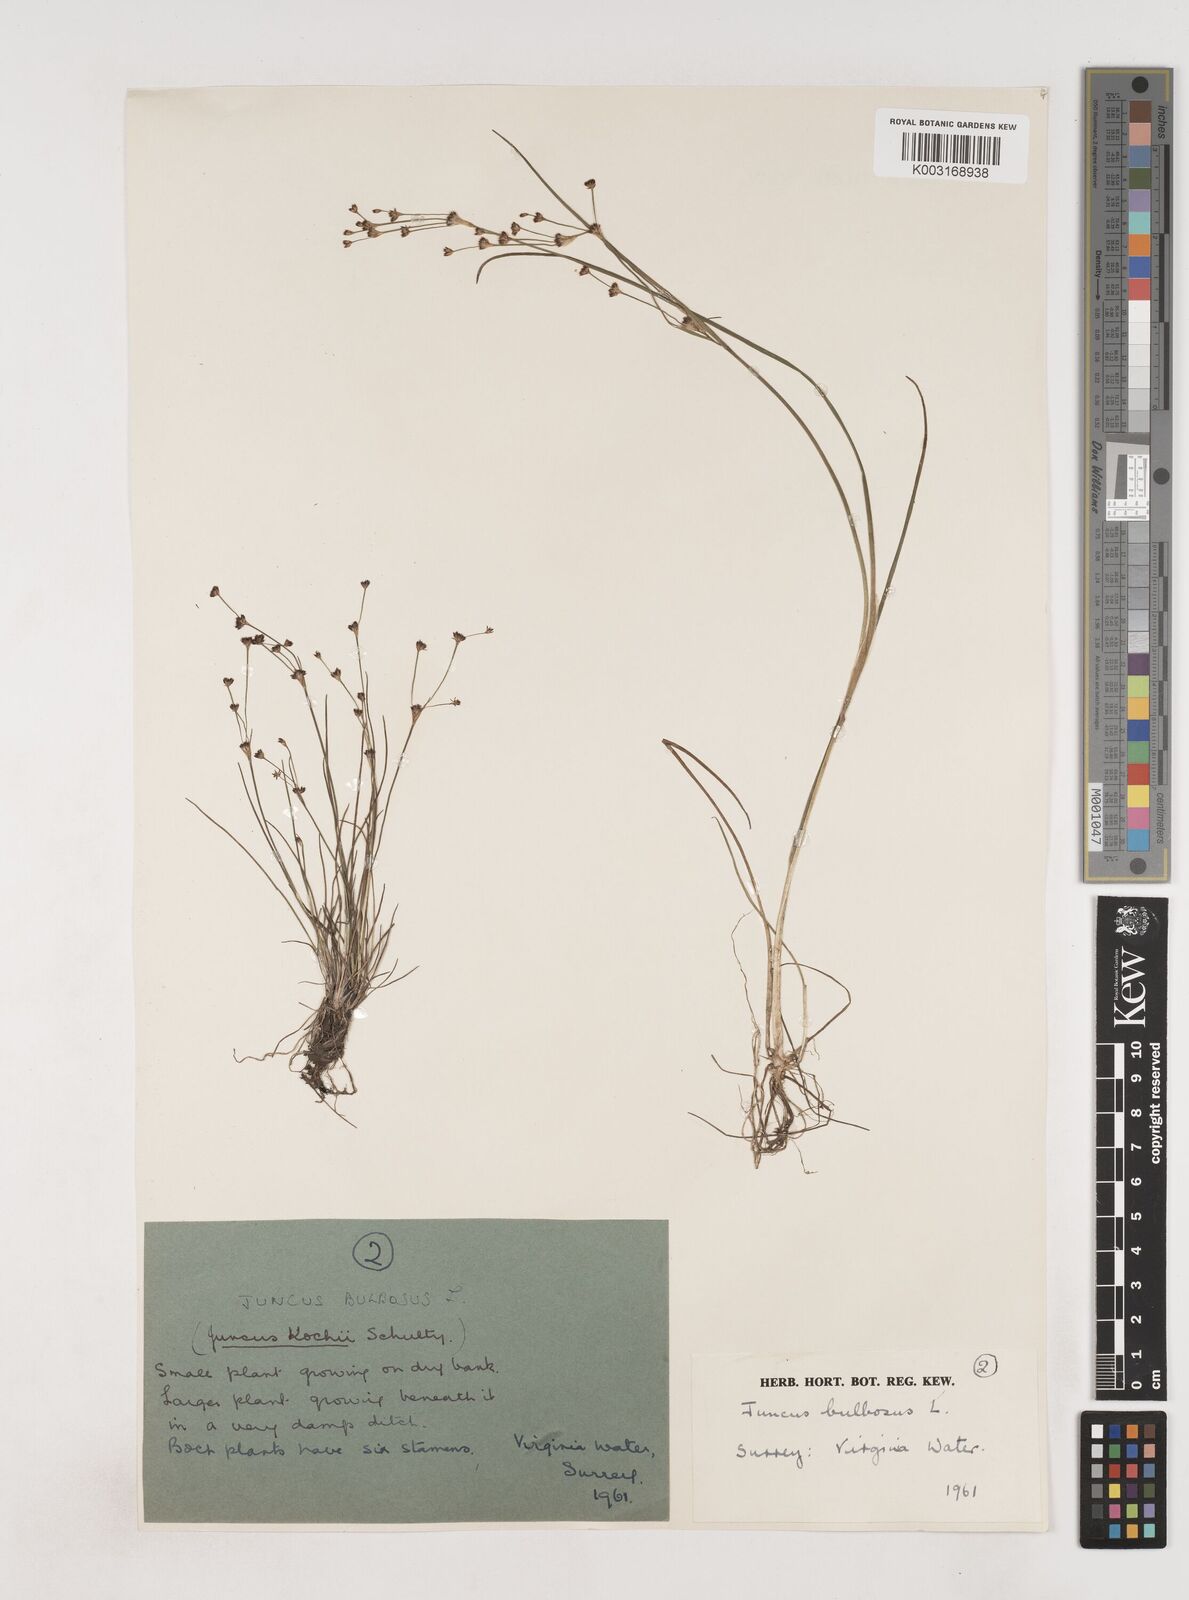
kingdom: Plantae
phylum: Tracheophyta
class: Liliopsida
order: Poales
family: Juncaceae
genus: Juncus
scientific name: Juncus bulbosus
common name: Bulbous rush
